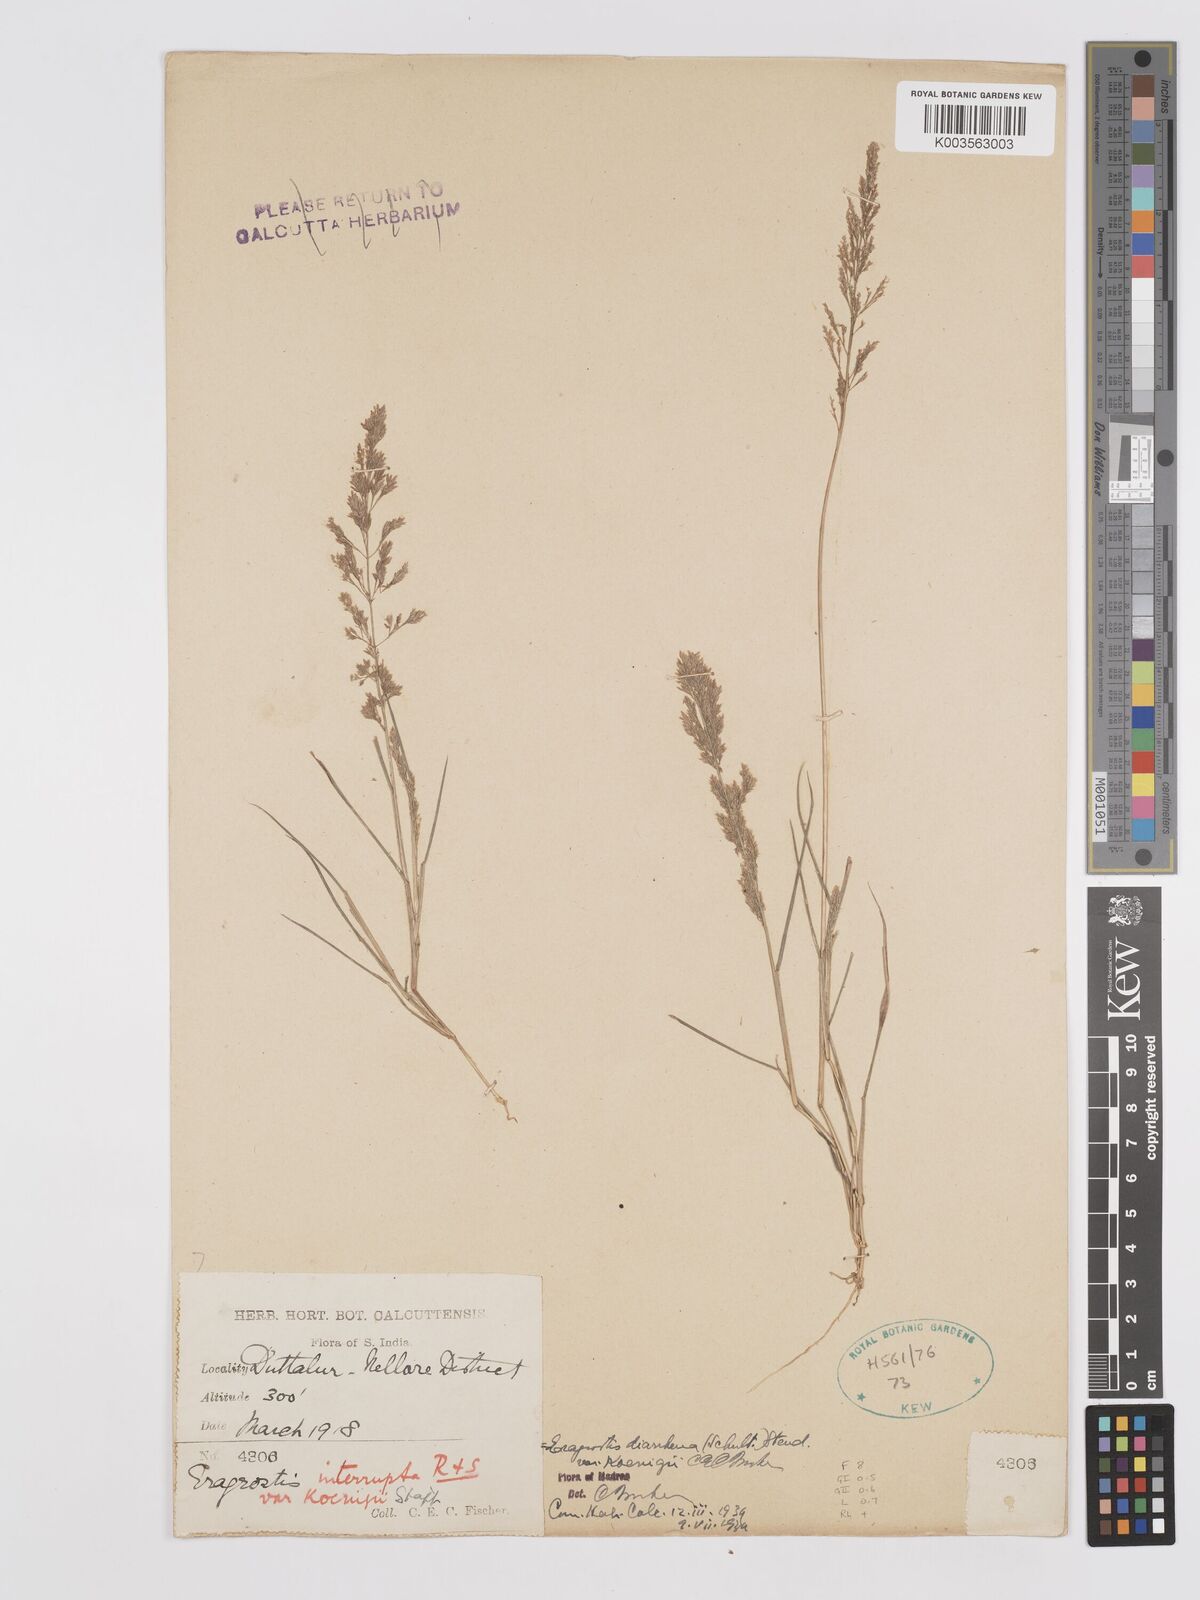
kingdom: Plantae
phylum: Tracheophyta
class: Liliopsida
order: Poales
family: Poaceae
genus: Eragrostis
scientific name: Eragrostis japonica
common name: Pond lovegrass
